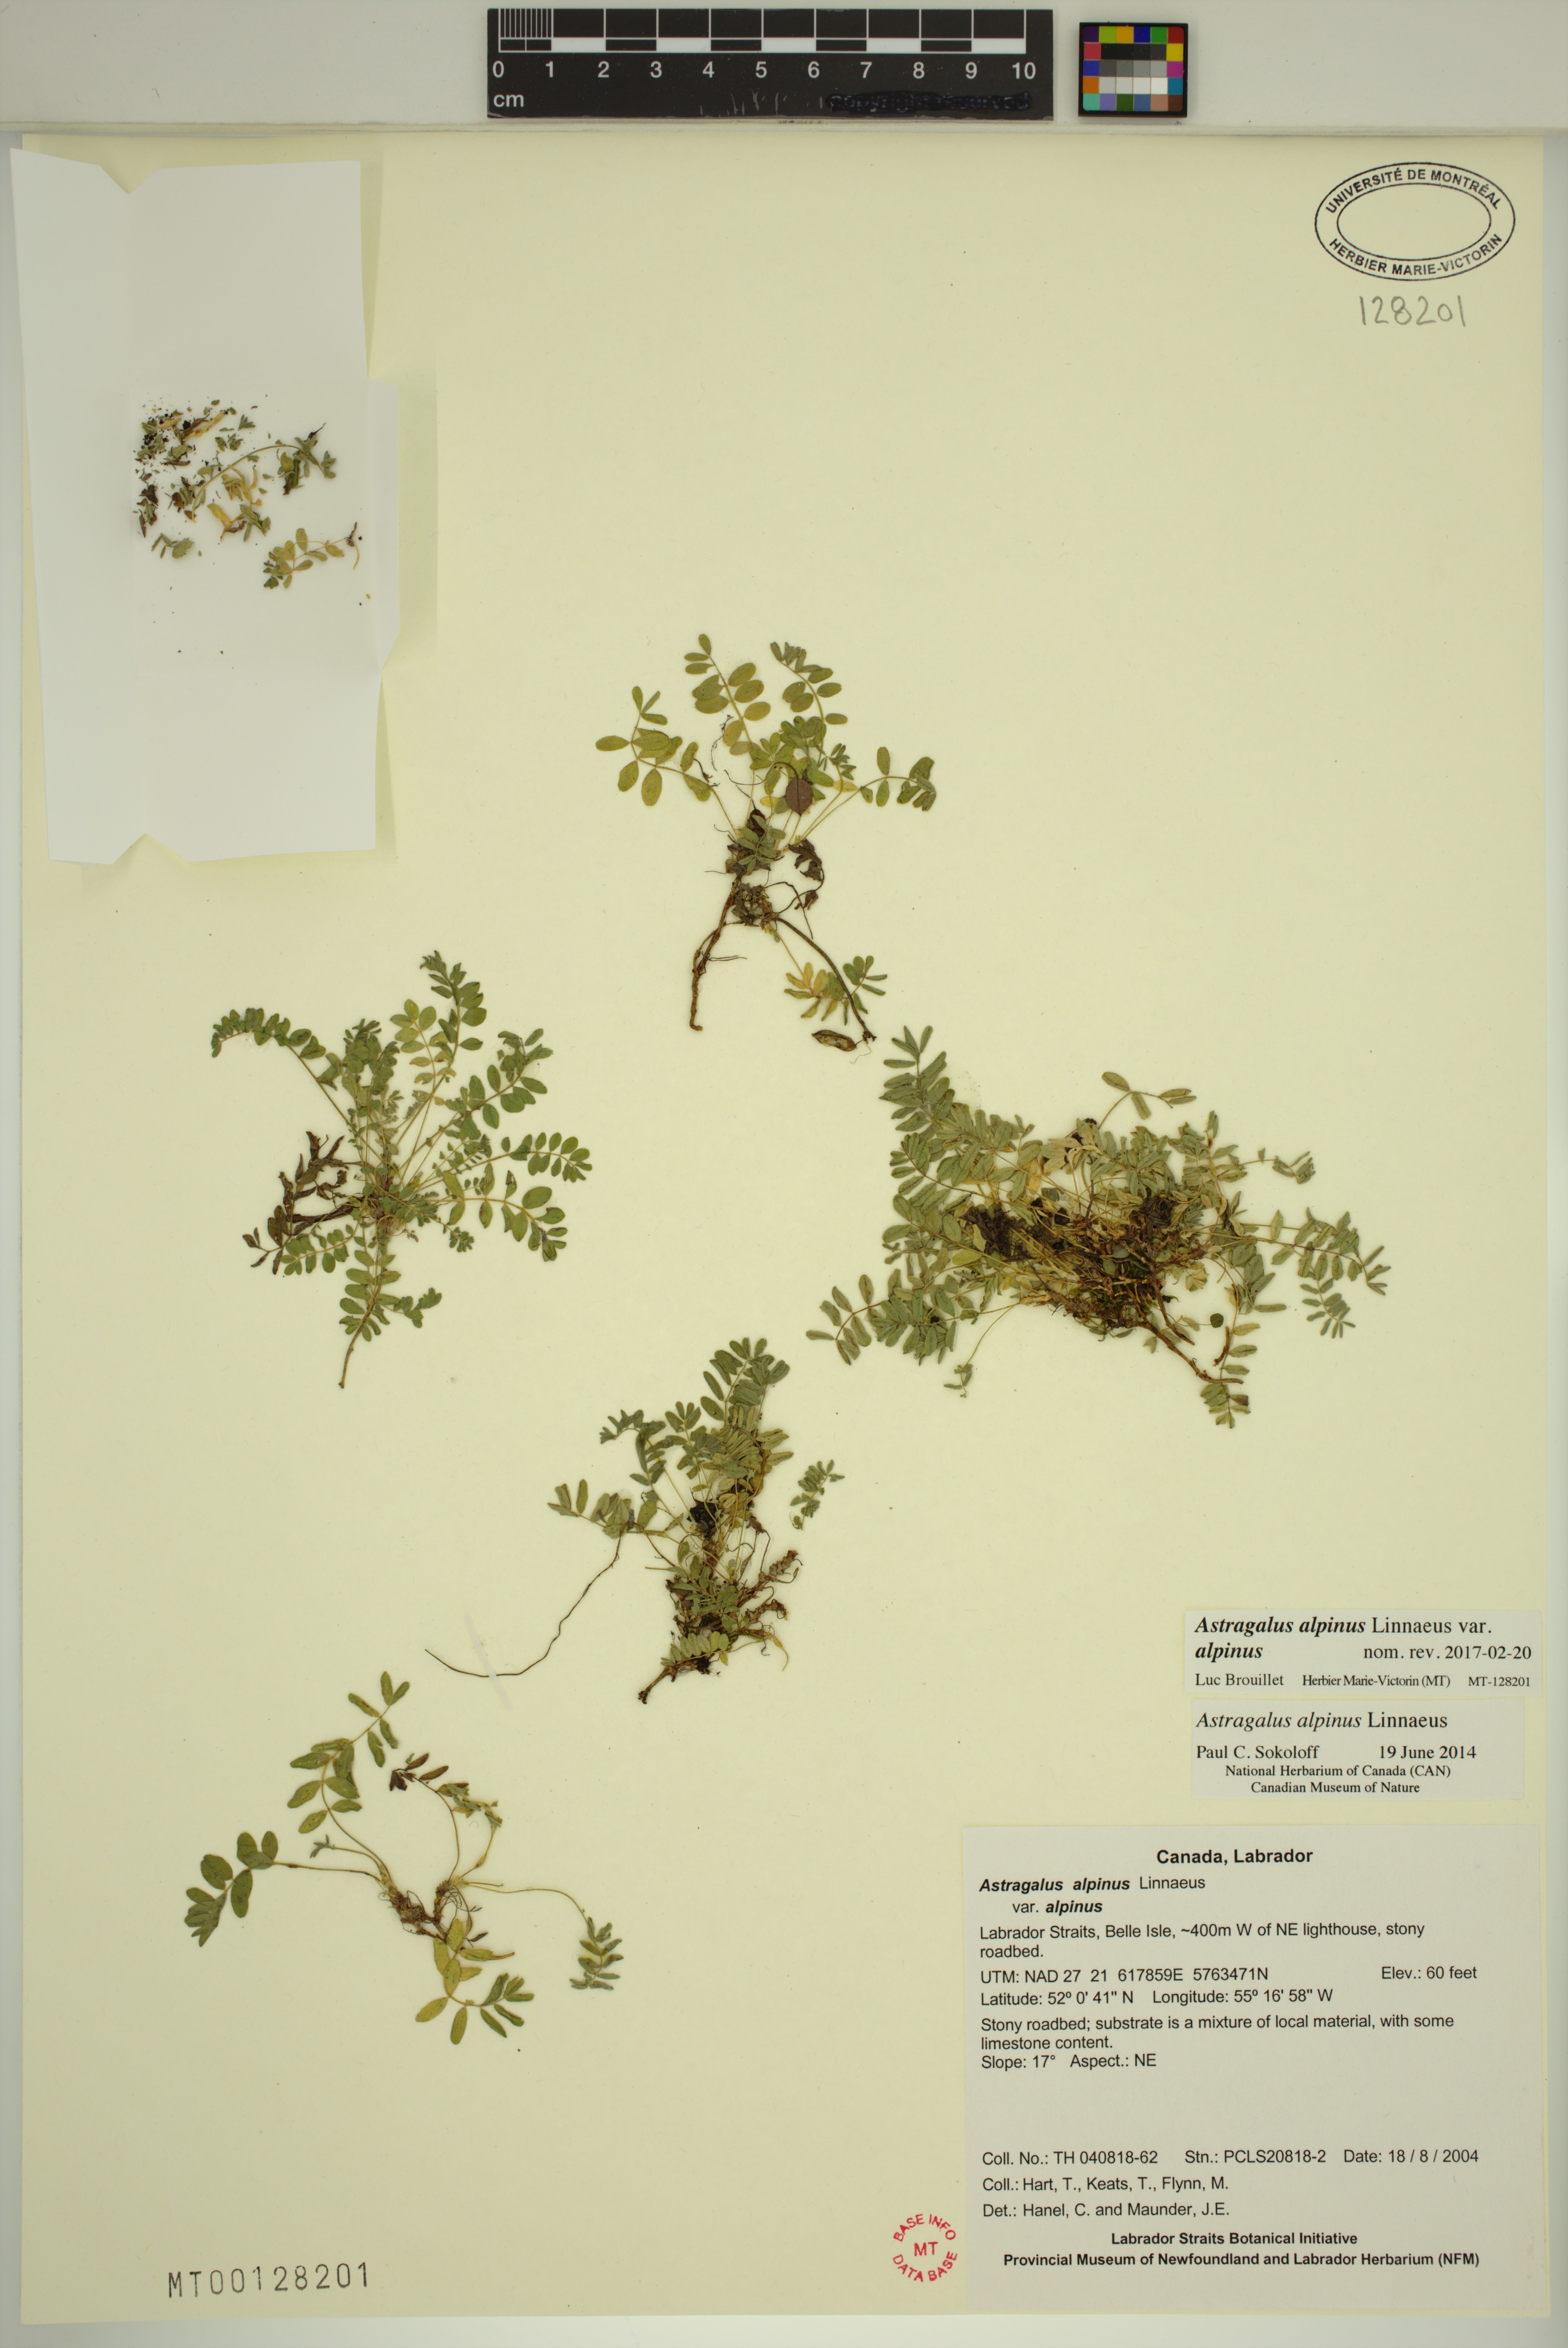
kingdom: Plantae
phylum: Tracheophyta
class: Magnoliopsida
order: Fabales
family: Fabaceae
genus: Astragalus
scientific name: Astragalus alpinus
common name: Alpine milk-vetch
